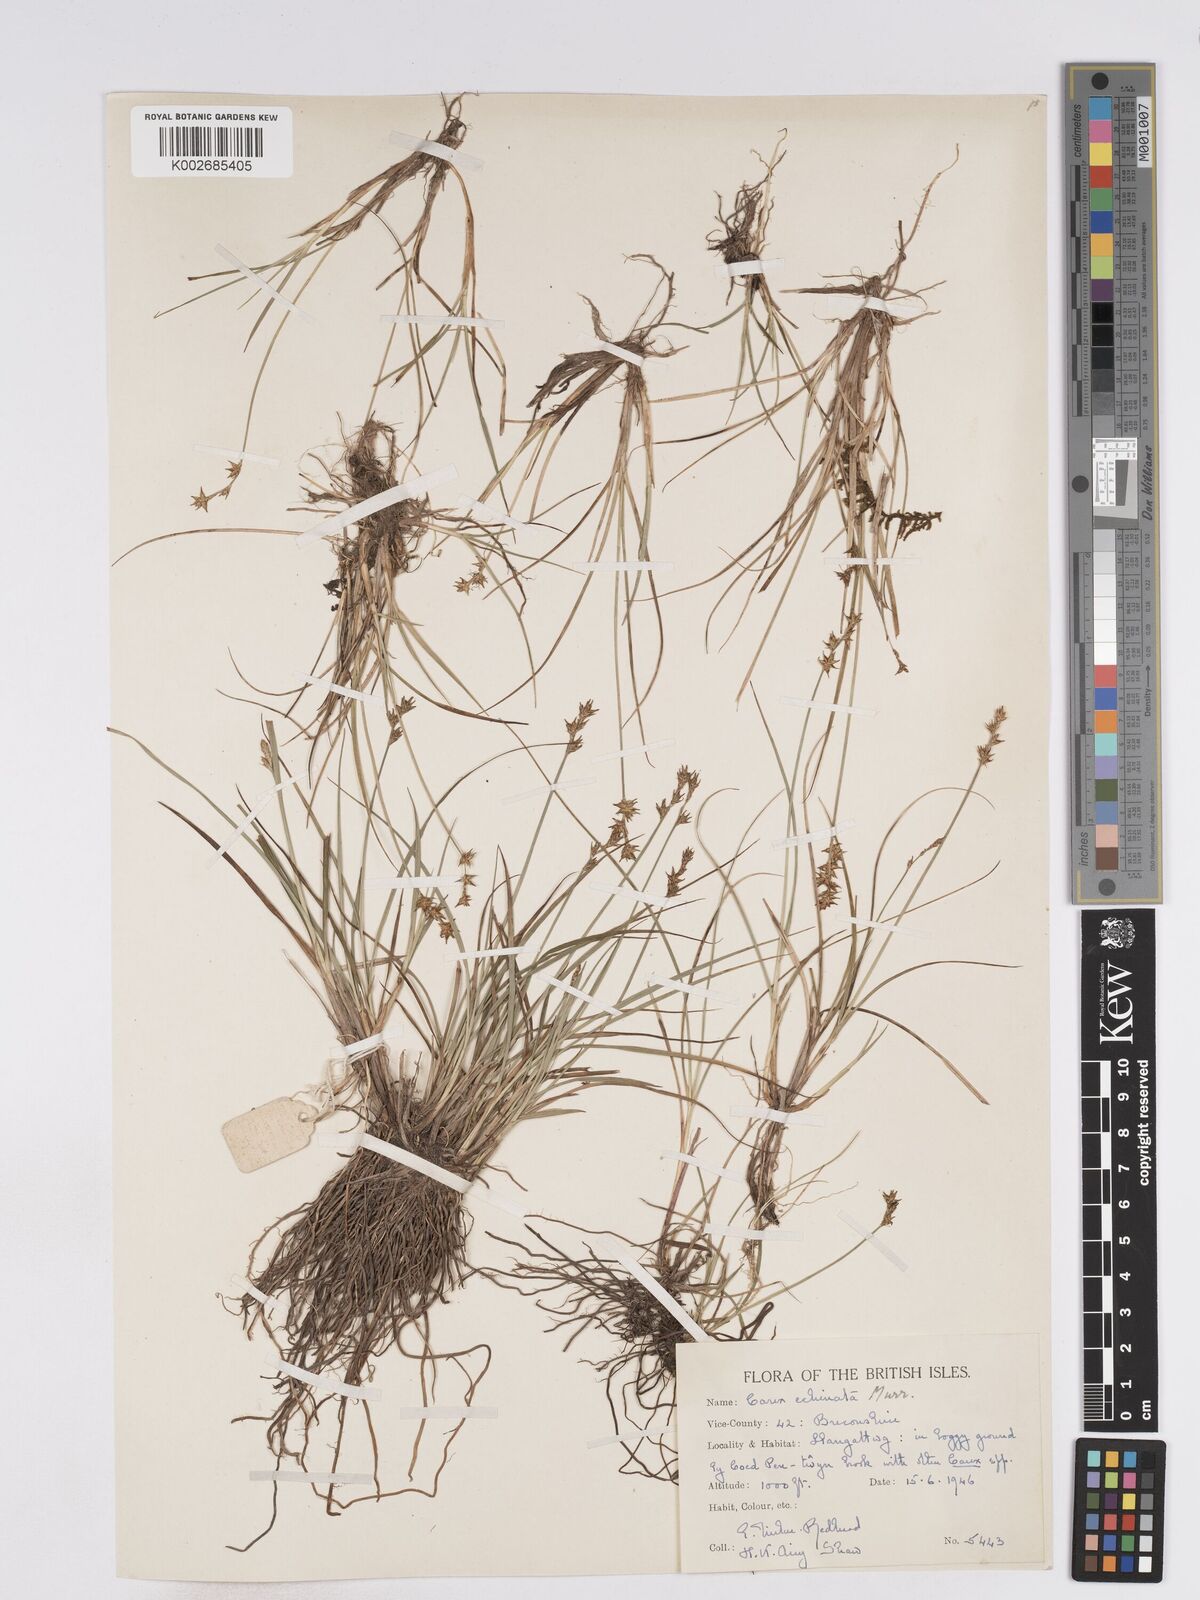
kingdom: Plantae
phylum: Tracheophyta
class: Liliopsida
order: Poales
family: Cyperaceae
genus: Carex
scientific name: Carex echinata
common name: Star sedge
